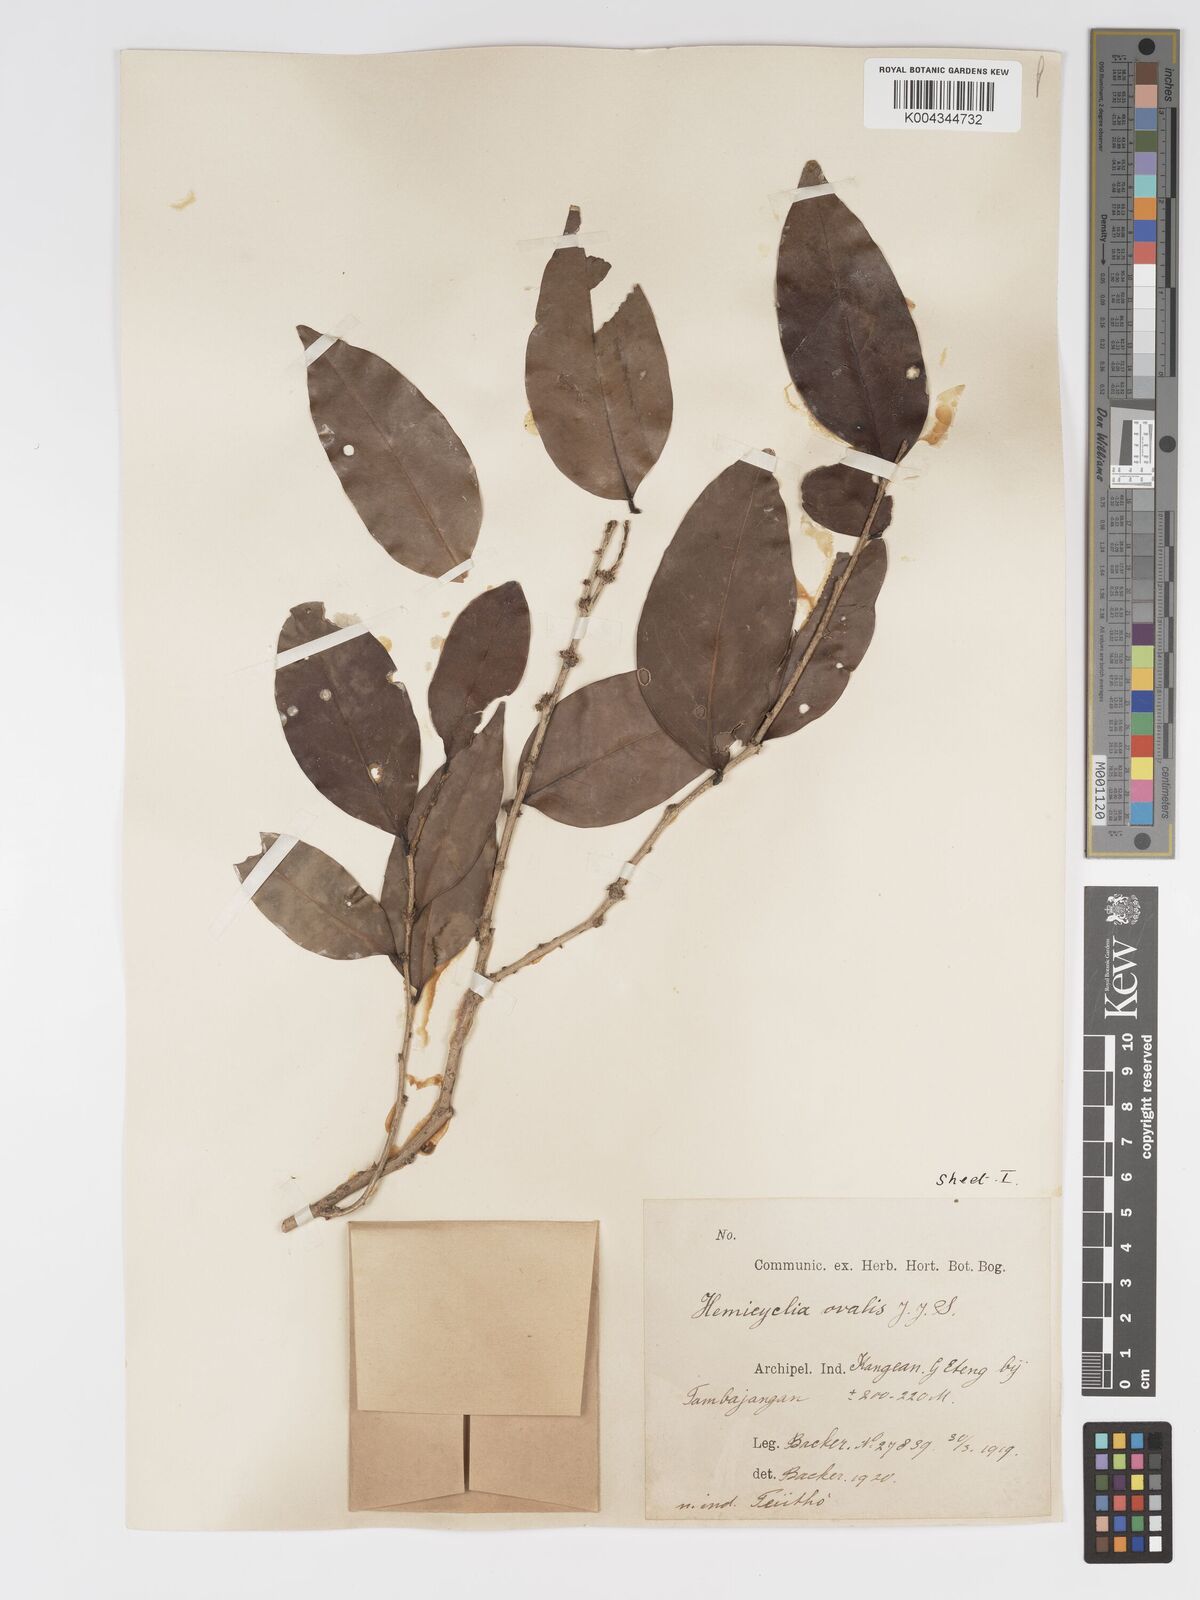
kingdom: Plantae
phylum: Tracheophyta
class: Magnoliopsida
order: Malpighiales
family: Putranjivaceae
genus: Drypetes
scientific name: Drypetes ovalis
